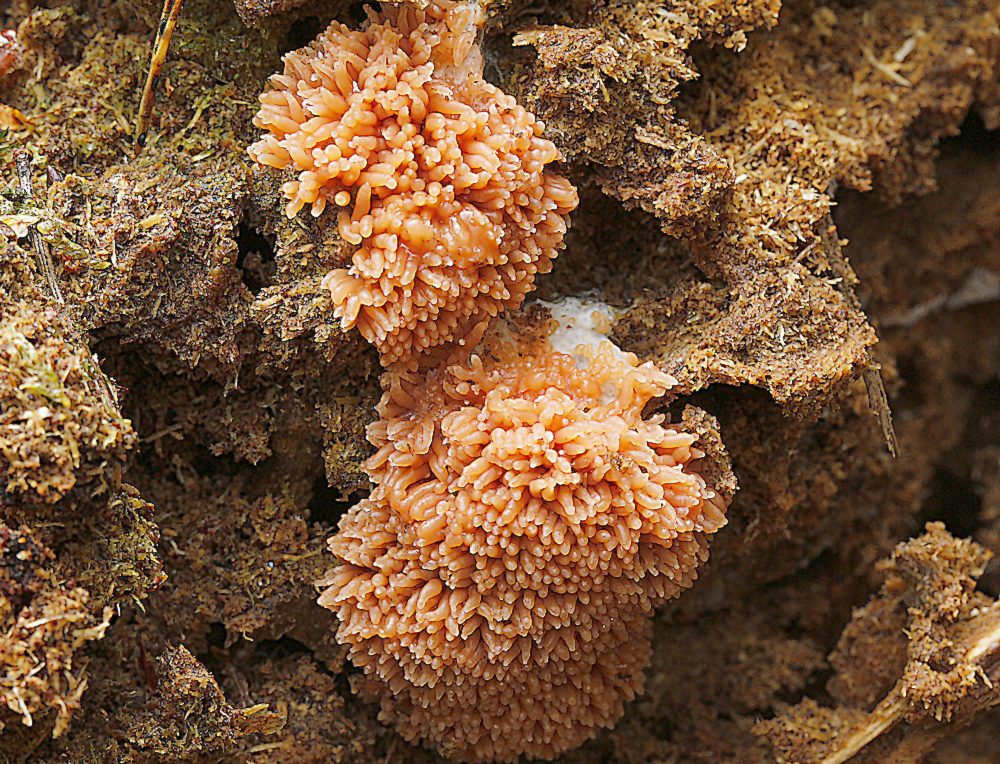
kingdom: Protozoa
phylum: Mycetozoa
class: Myxomycetes
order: Cribrariales
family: Tubiferaceae
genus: Tubifera
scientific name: Tubifera ferruginosa
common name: kanel-støvrør
